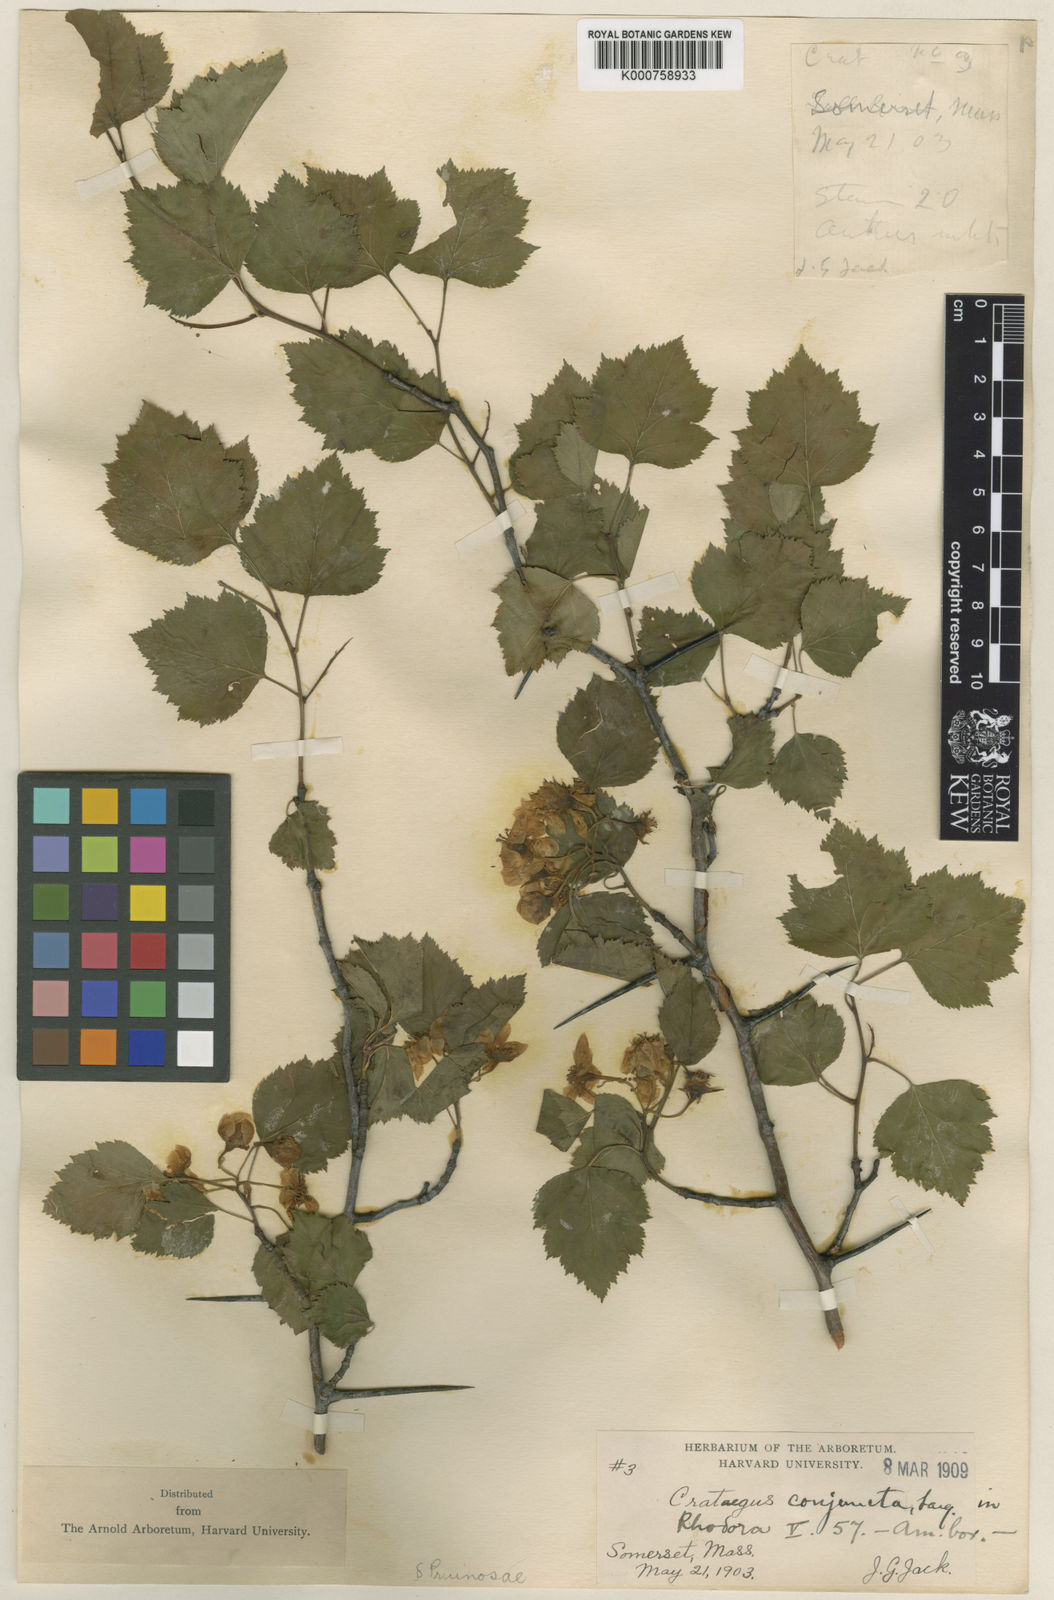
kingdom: Plantae
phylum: Tracheophyta
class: Magnoliopsida
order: Rosales
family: Rosaceae
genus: Crataegus
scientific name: Crataegus pruinosa
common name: Waxy-fruit hawthorn
